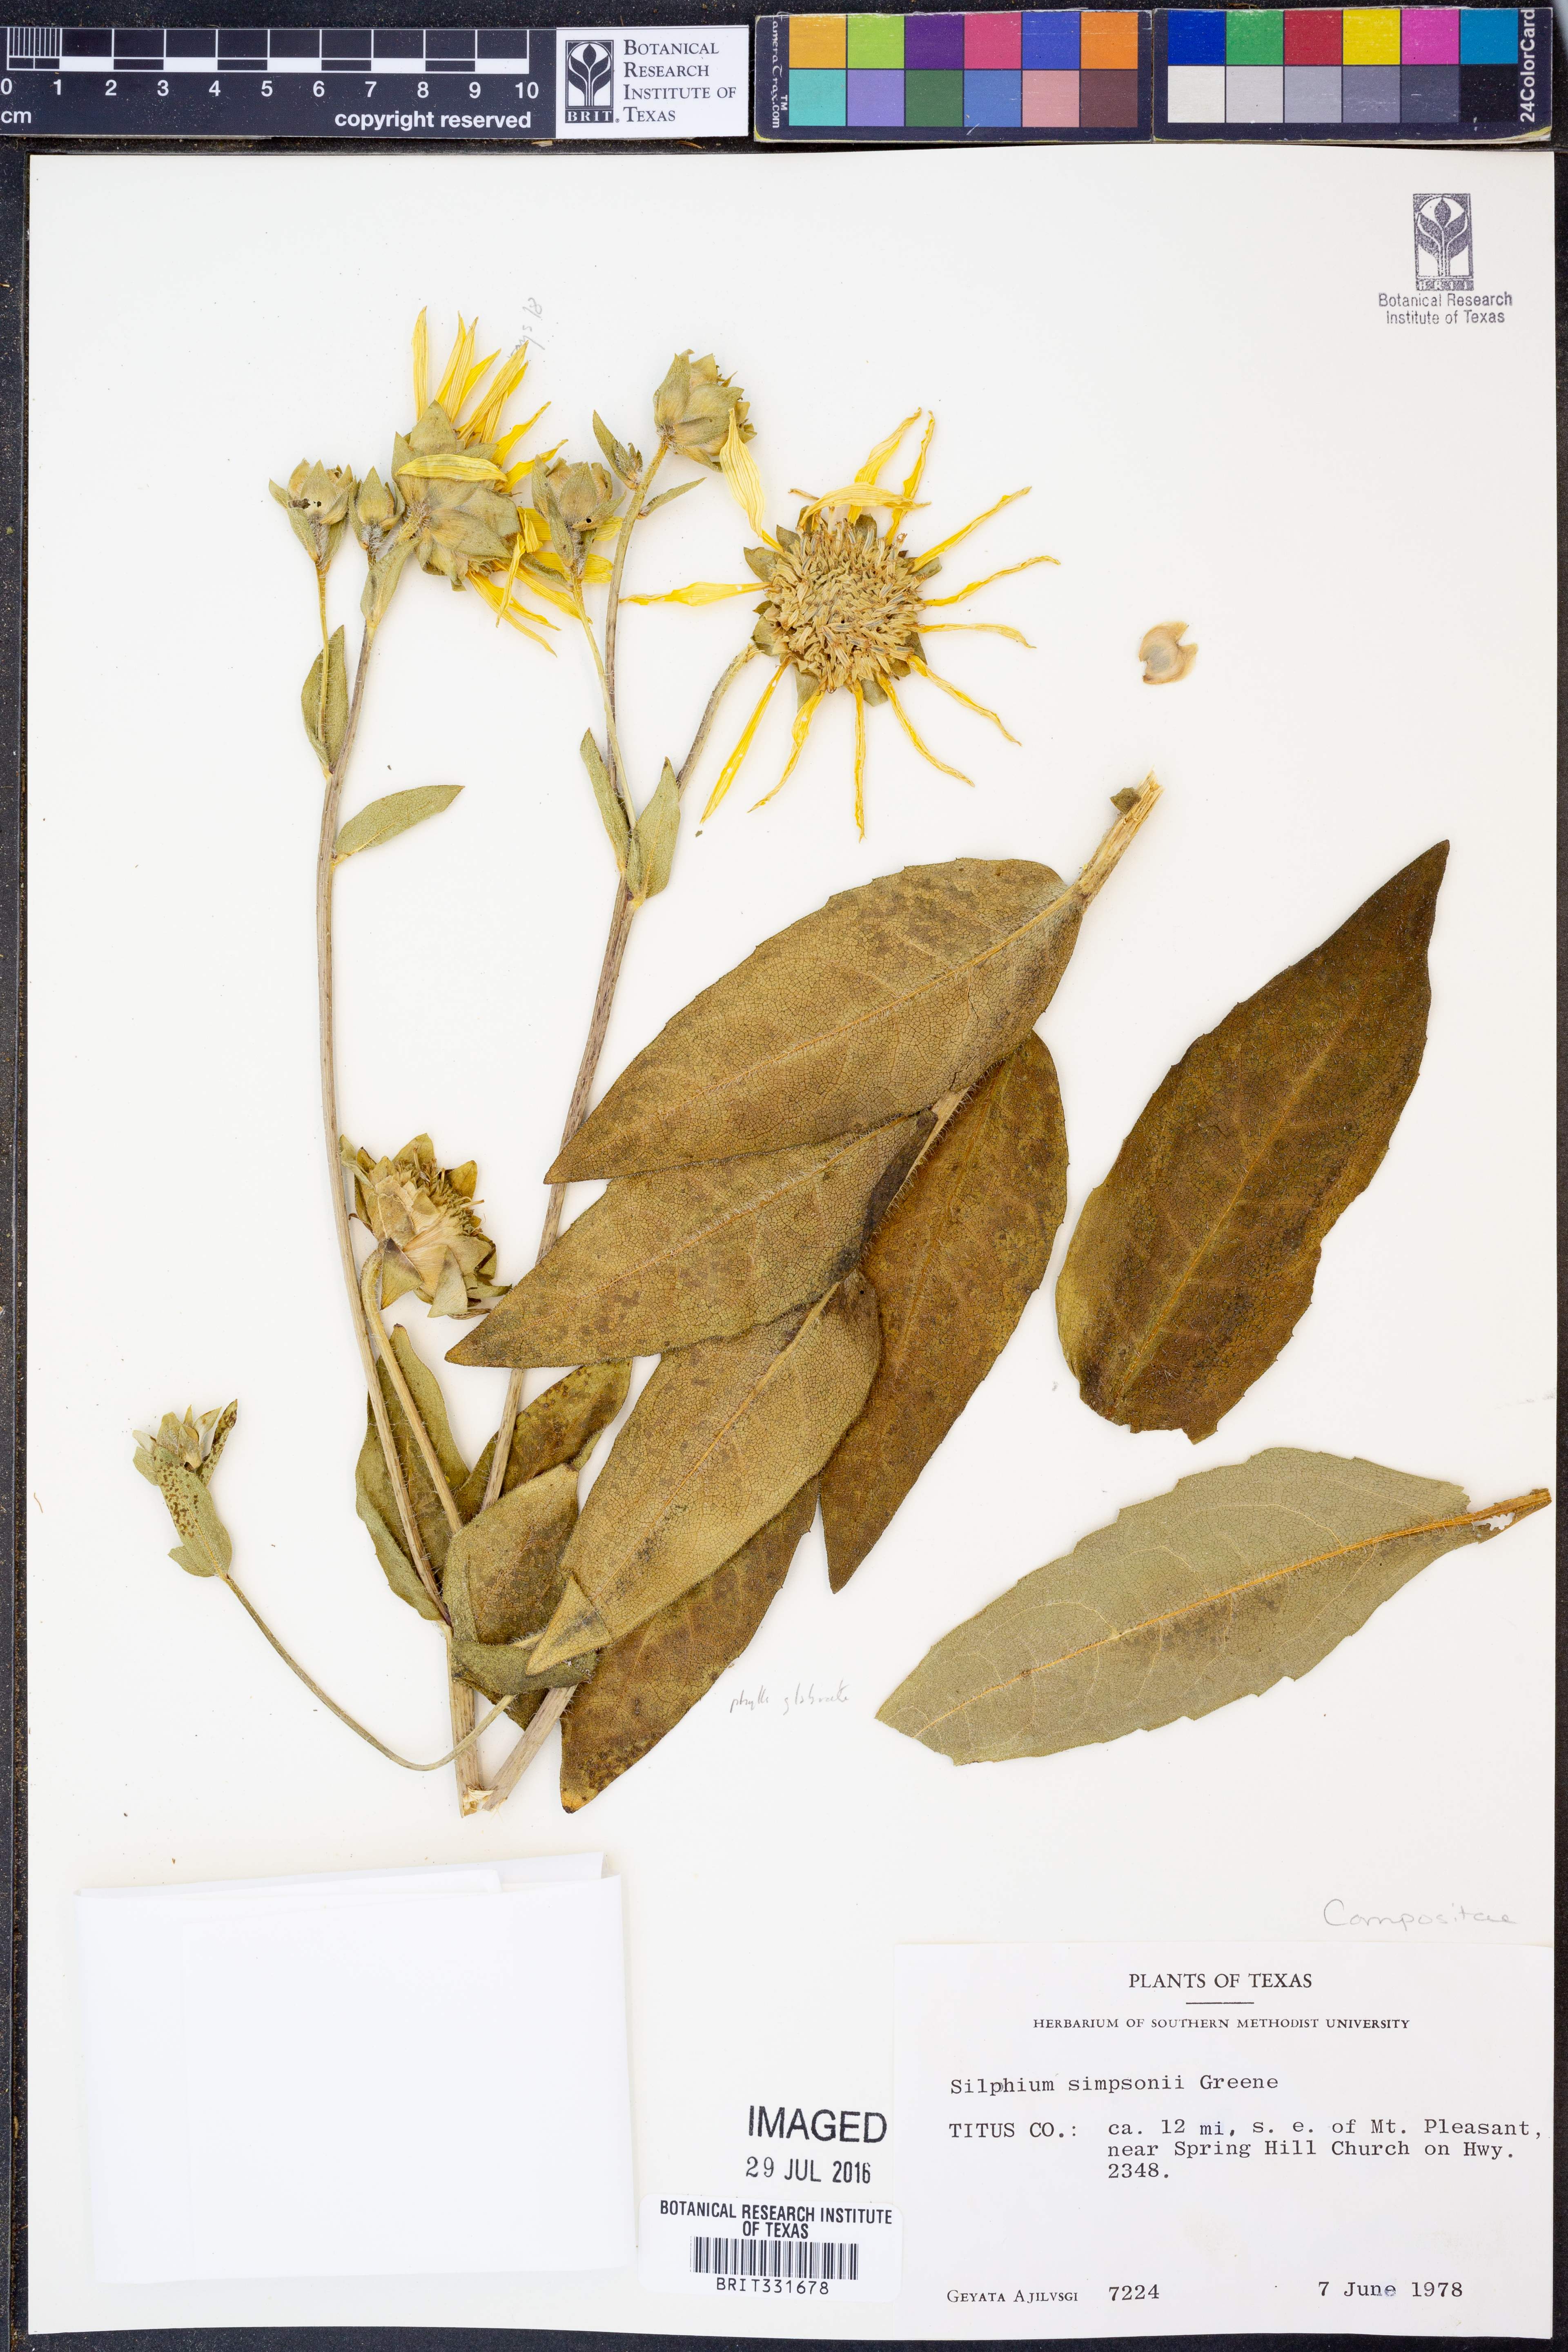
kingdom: Plantae
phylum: Tracheophyta
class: Magnoliopsida
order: Asterales
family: Asteraceae
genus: Silphium
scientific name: Silphium radula
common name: Roughleaf rosinweed
